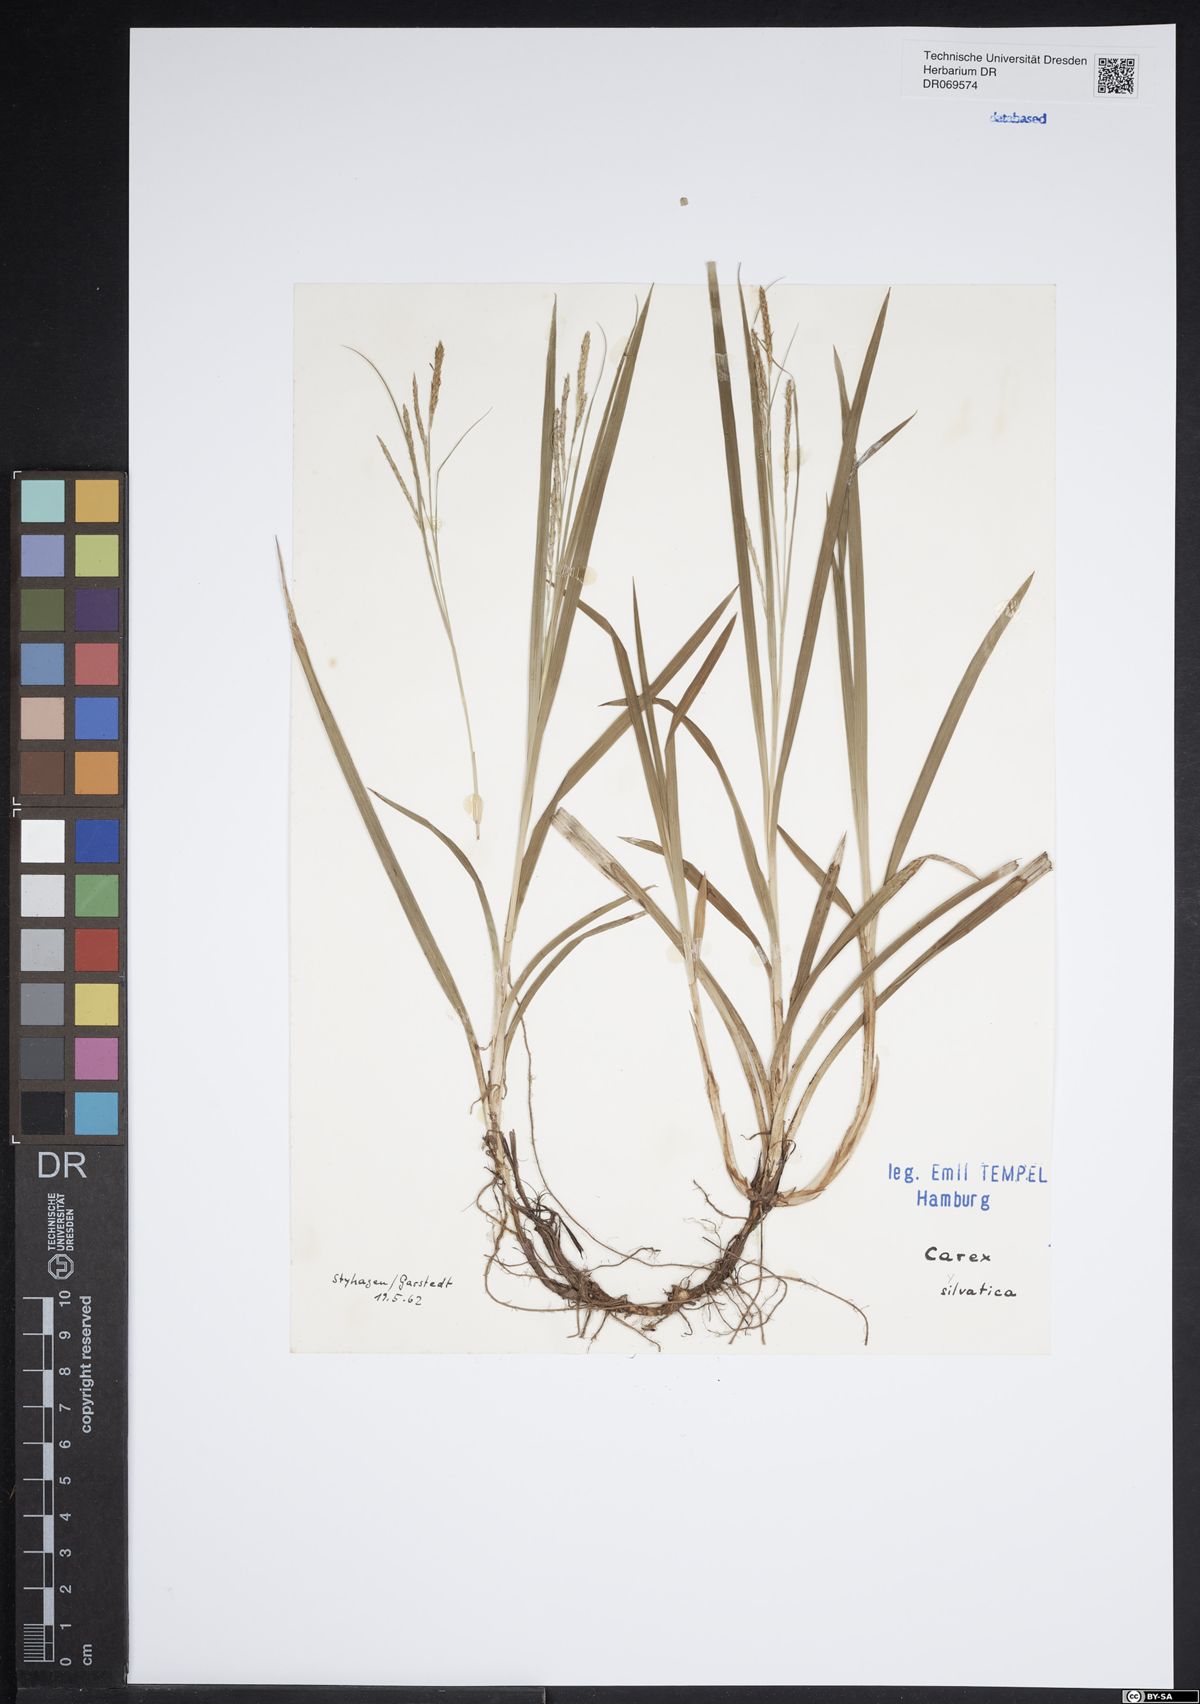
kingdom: Plantae
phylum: Tracheophyta
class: Liliopsida
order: Poales
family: Cyperaceae
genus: Carex
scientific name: Carex sylvatica
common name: Wood-sedge
